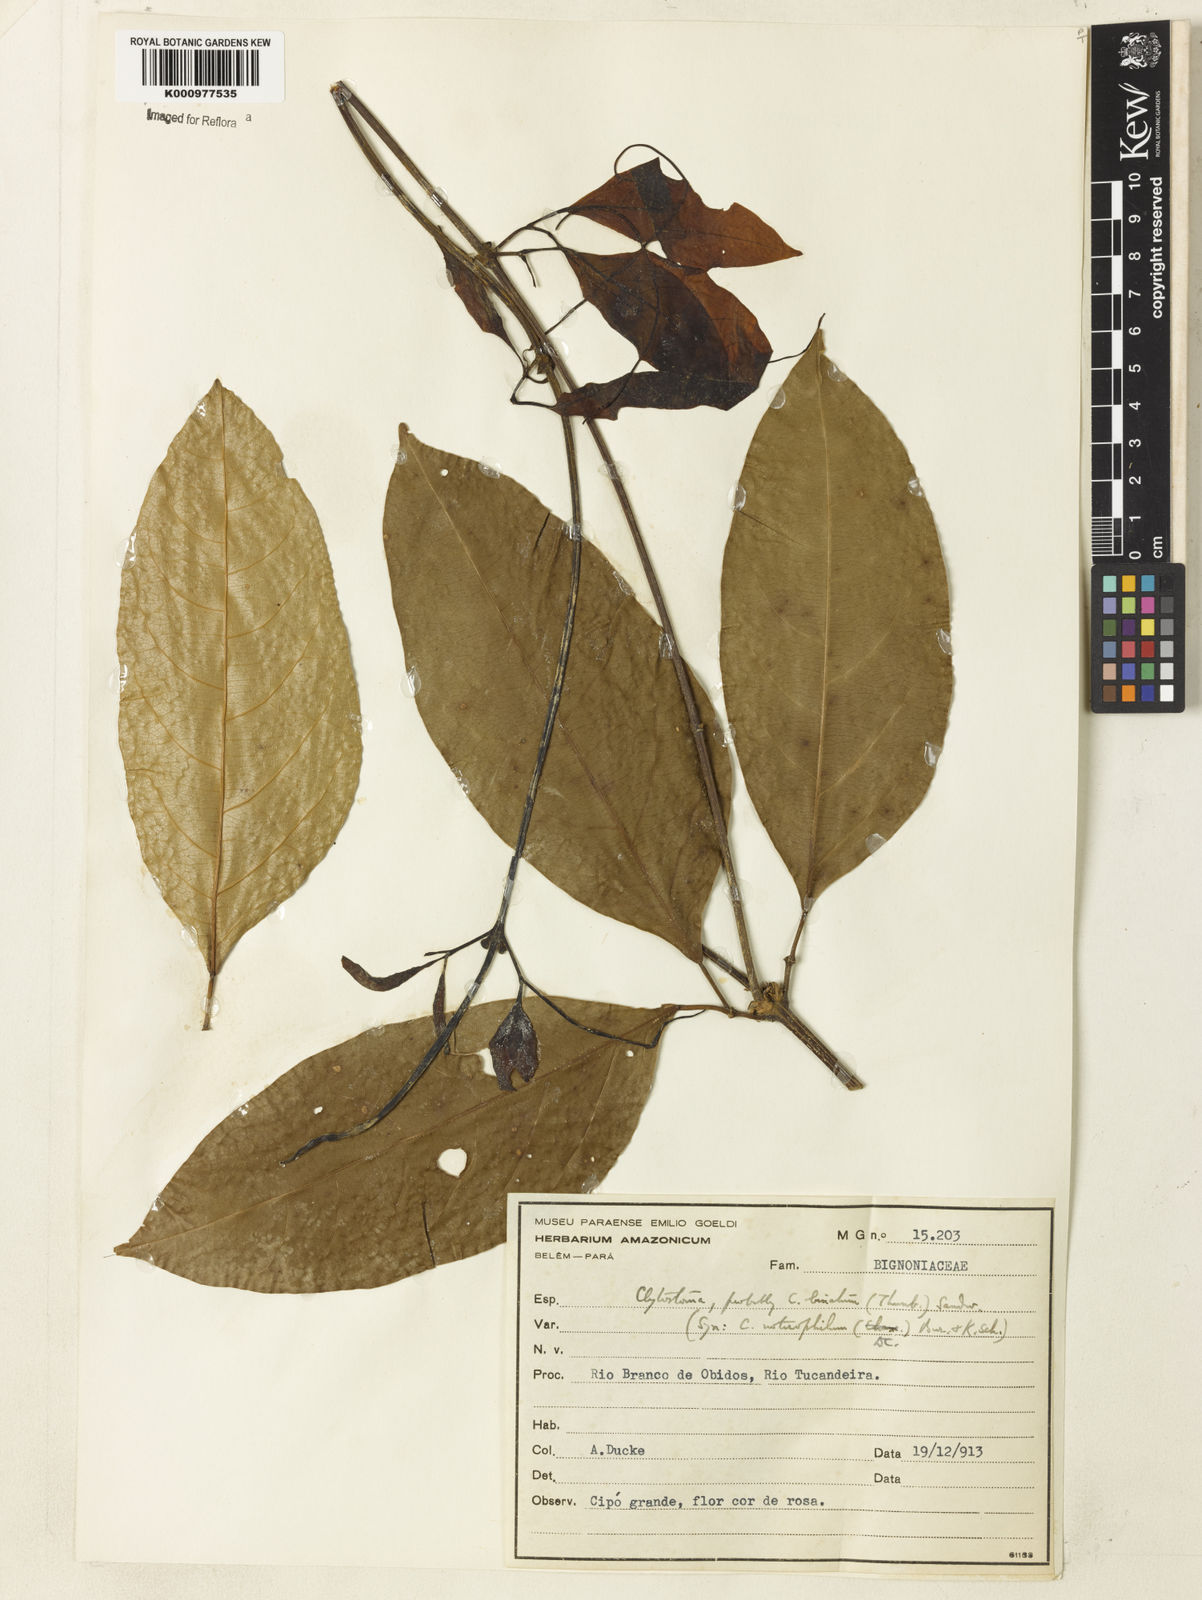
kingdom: Plantae
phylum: Tracheophyta
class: Magnoliopsida
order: Lamiales
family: Bignoniaceae
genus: Bignonia
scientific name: Bignonia binata
